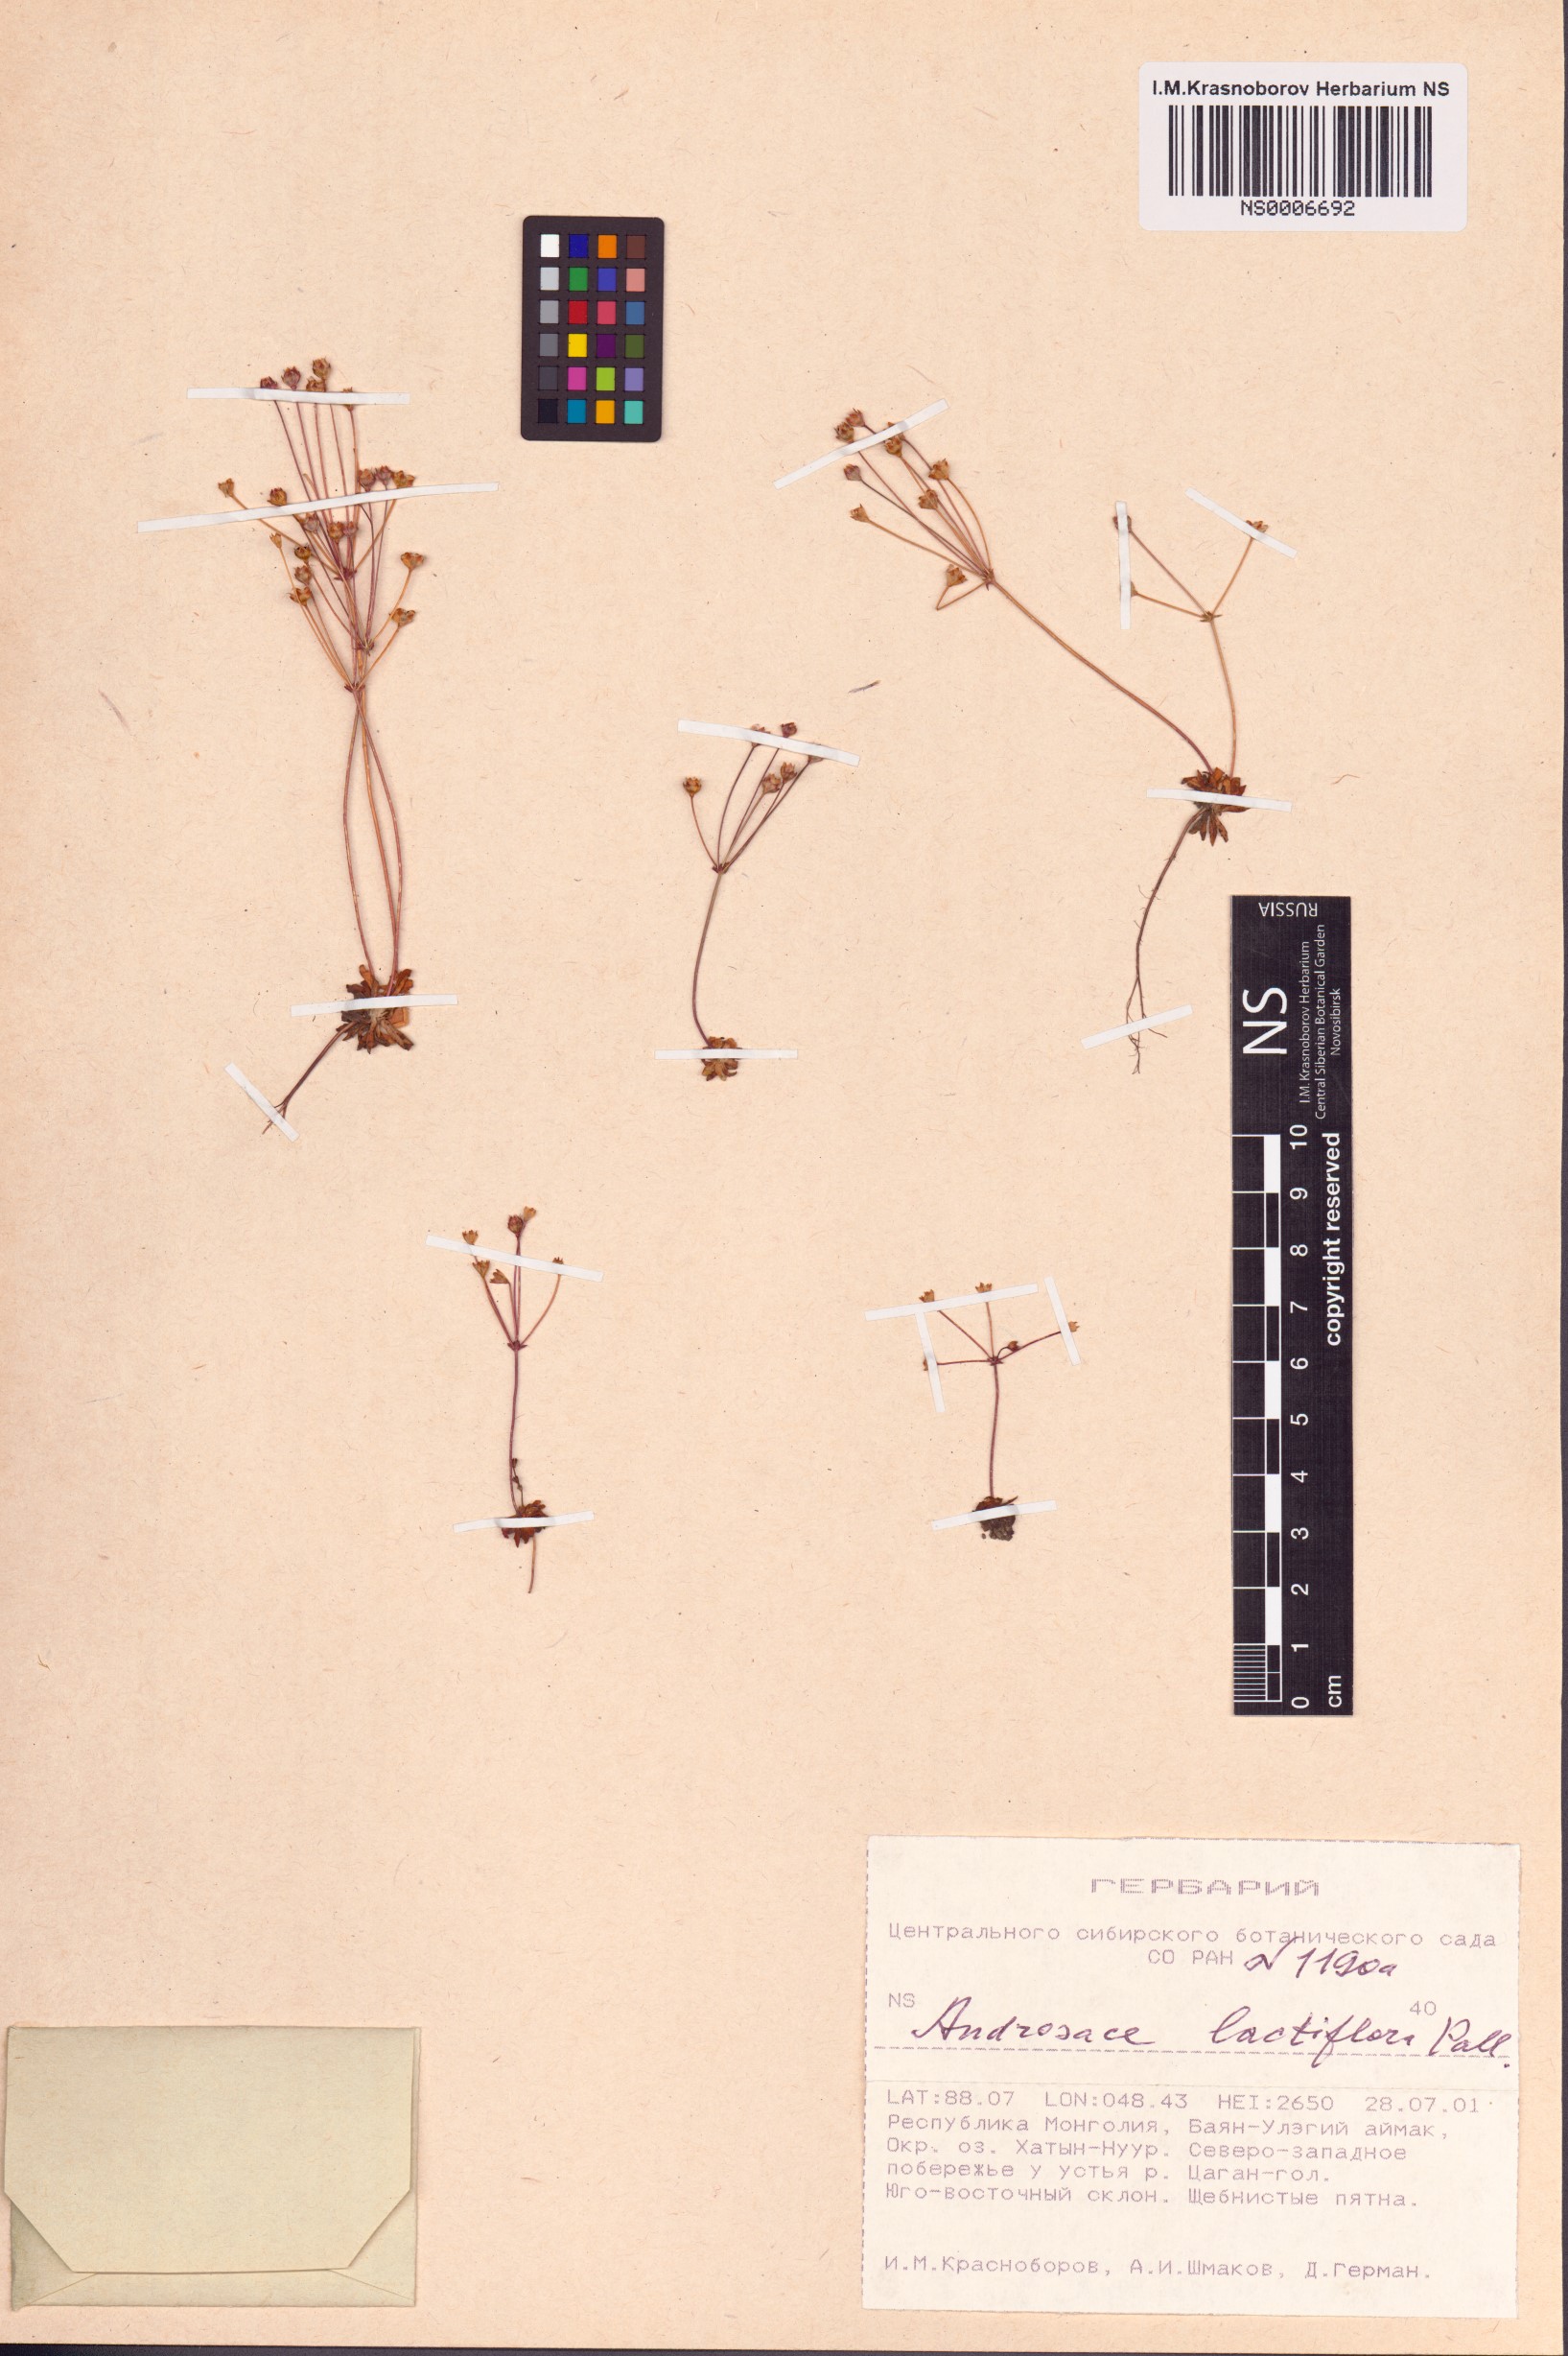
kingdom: Plantae
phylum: Tracheophyta
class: Magnoliopsida
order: Ericales
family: Primulaceae
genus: Androsace
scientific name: Androsace lactiflora
